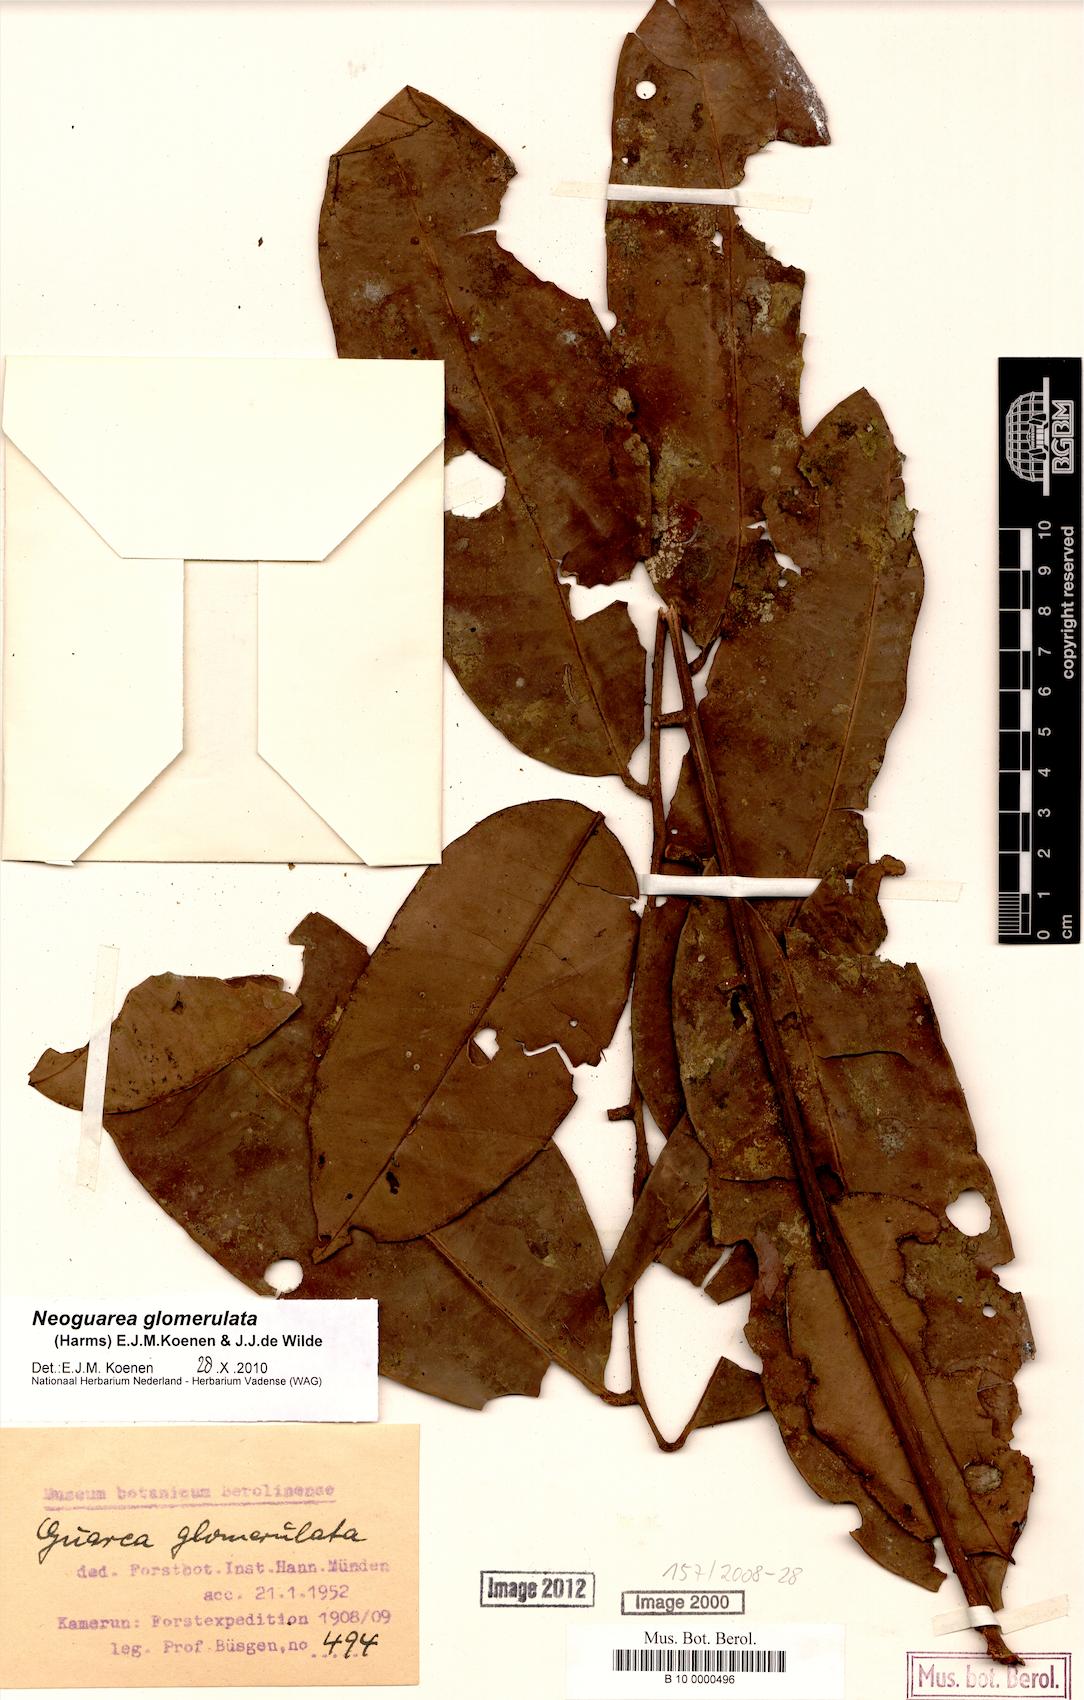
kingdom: Plantae
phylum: Tracheophyta
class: Magnoliopsida
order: Sapindales
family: Meliaceae
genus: Neoguarea
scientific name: Neoguarea glomerulata
